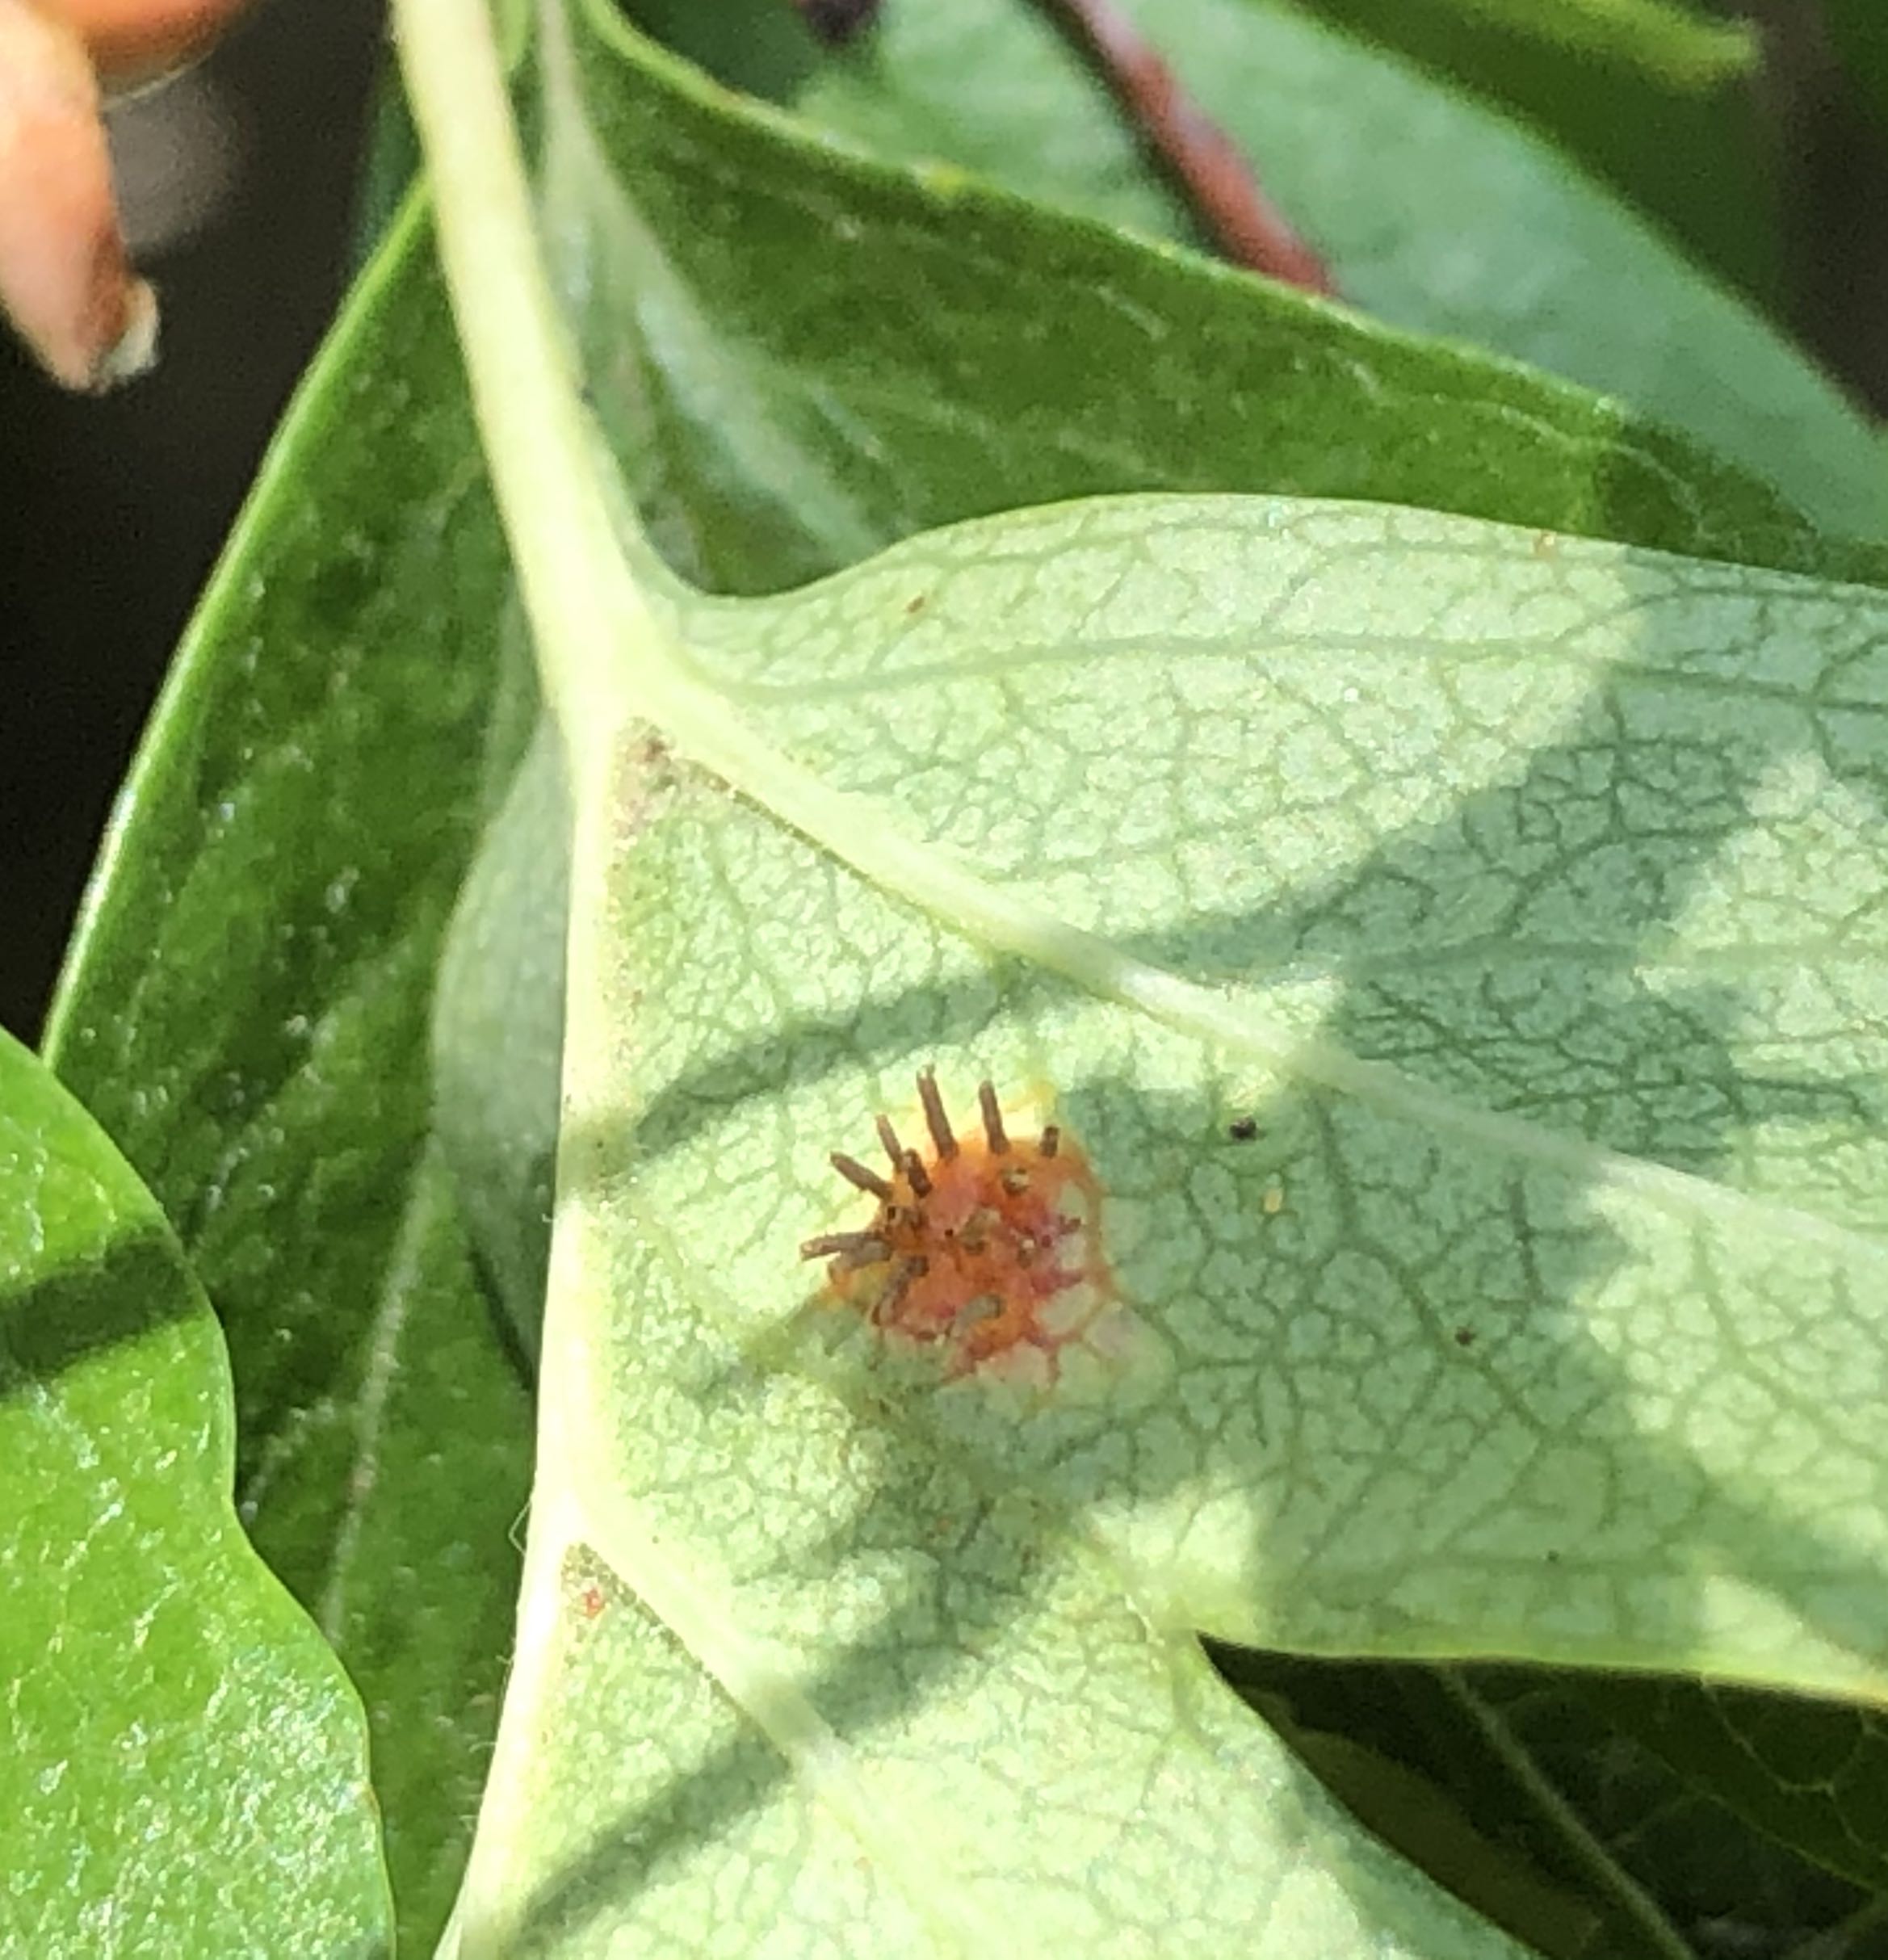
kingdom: Fungi
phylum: Basidiomycota
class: Pucciniomycetes
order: Pucciniales
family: Gymnosporangiaceae
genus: Gymnosporangium
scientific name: Gymnosporangium
